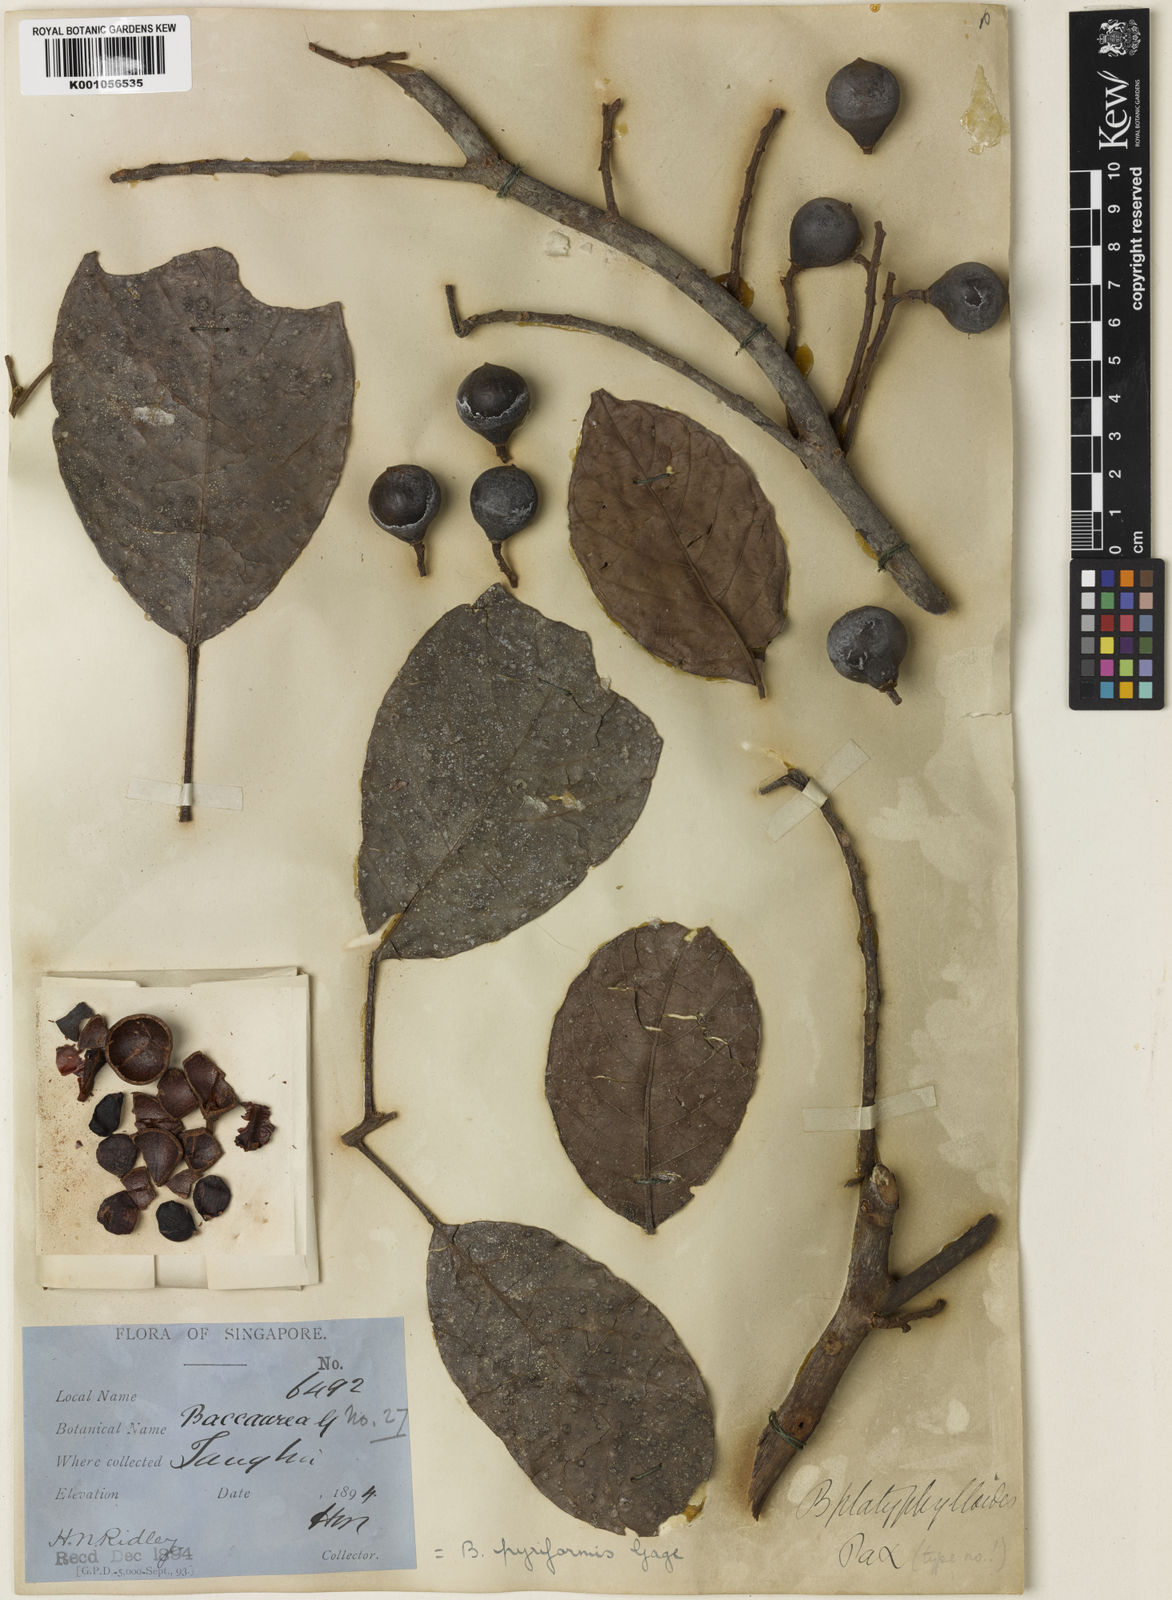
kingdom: Plantae
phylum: Tracheophyta
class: Magnoliopsida
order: Malpighiales
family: Phyllanthaceae
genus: Baccaurea
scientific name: Baccaurea pyriformis
